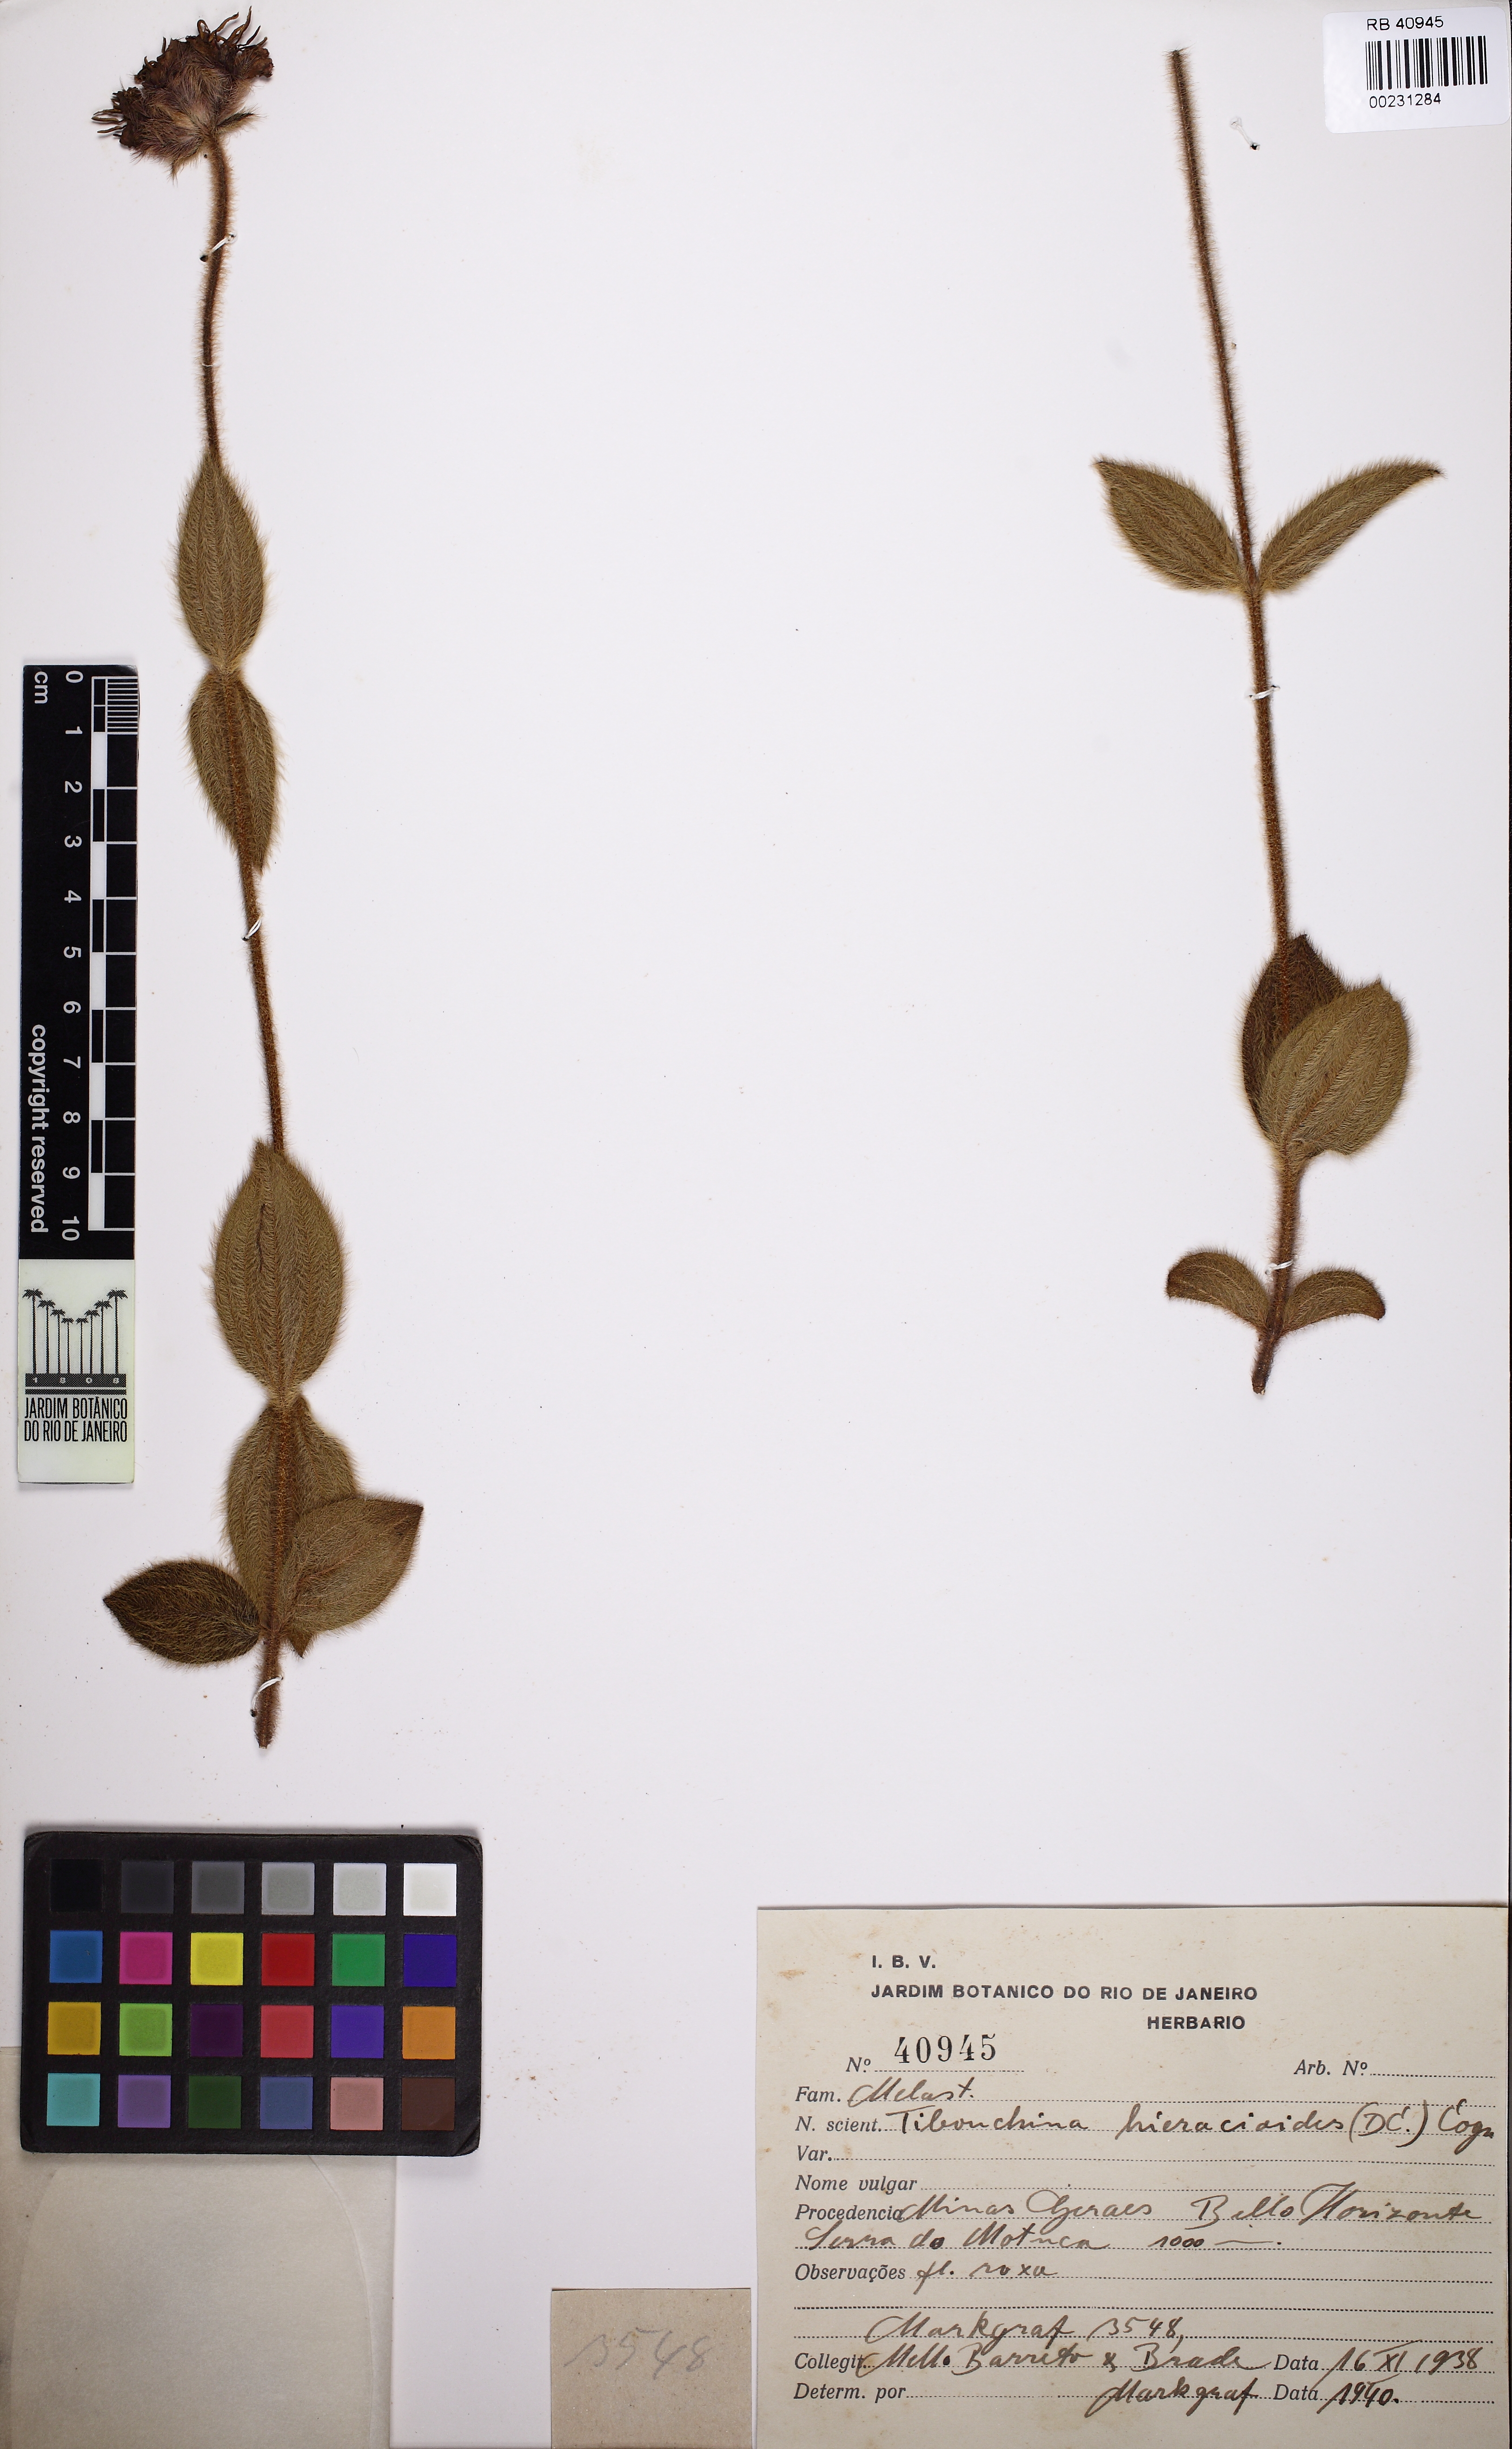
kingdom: Plantae
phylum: Tracheophyta
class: Magnoliopsida
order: Myrtales
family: Melastomataceae
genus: Chaetogastra
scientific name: Chaetogastra hieracioides
